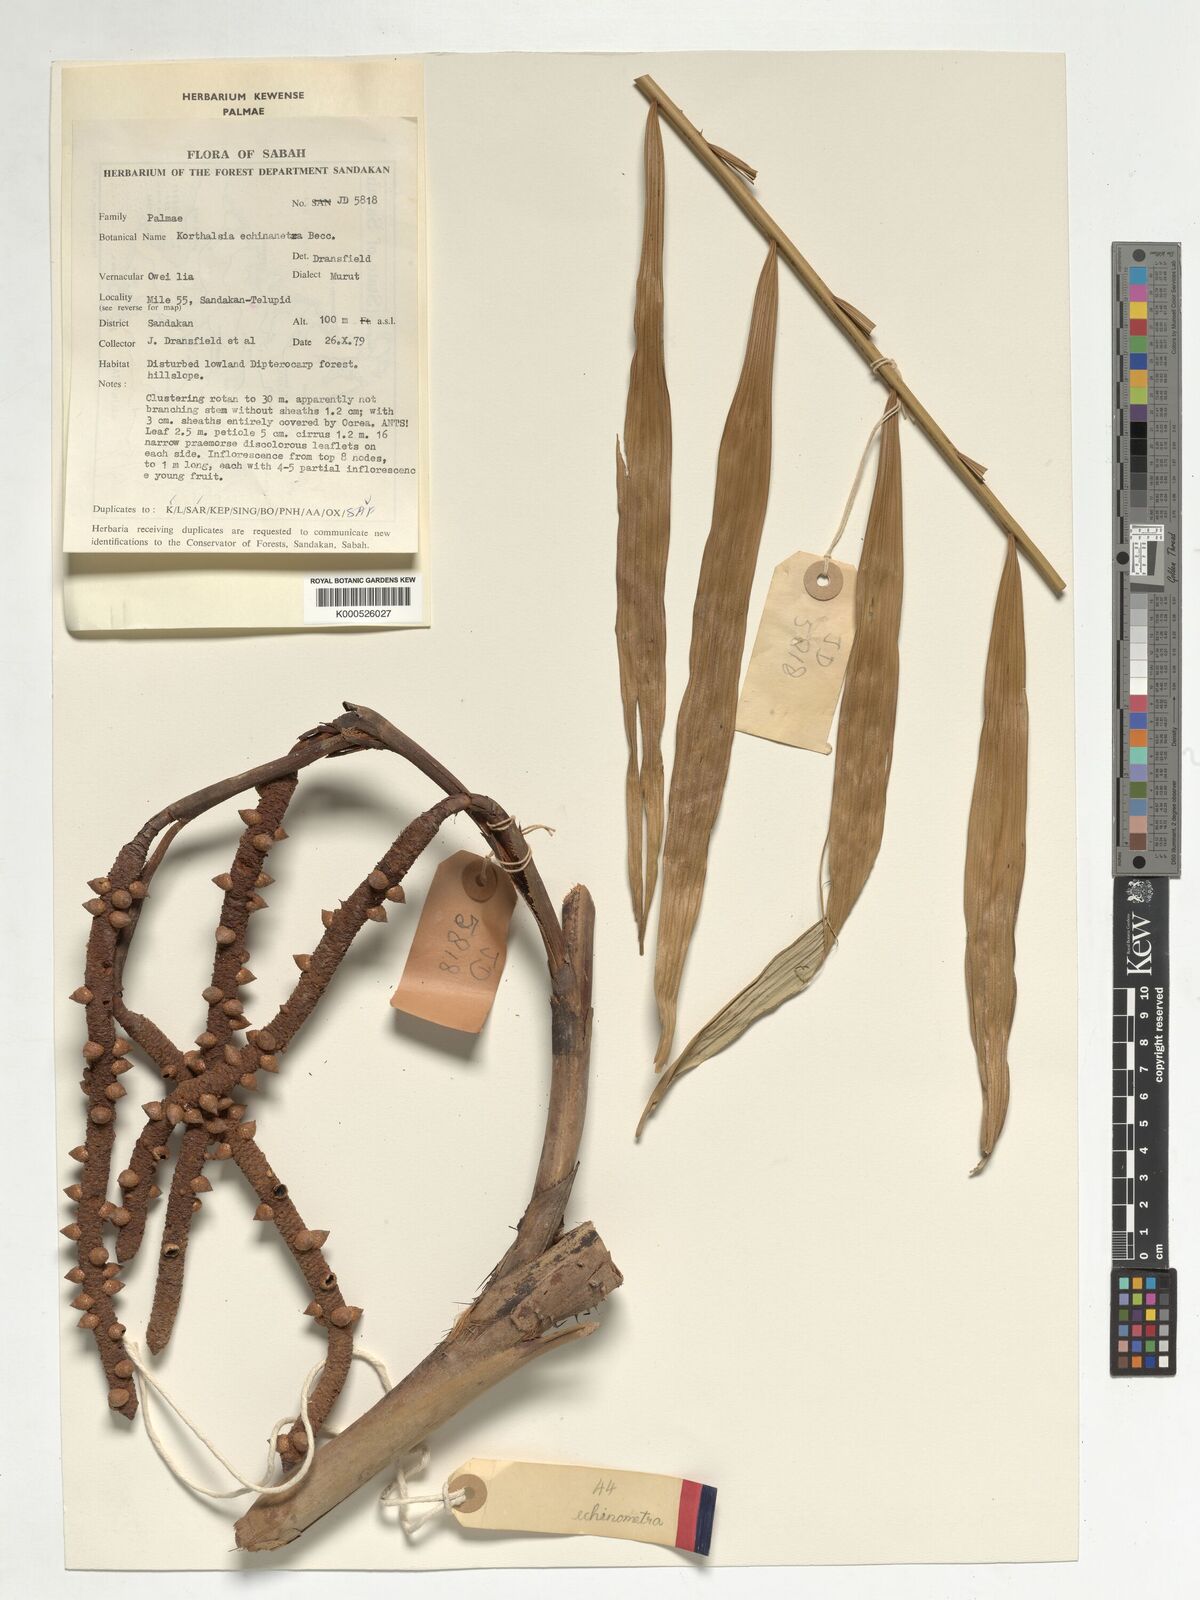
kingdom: Plantae
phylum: Tracheophyta
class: Liliopsida
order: Arecales
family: Arecaceae
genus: Korthalsia
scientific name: Korthalsia echinometra
